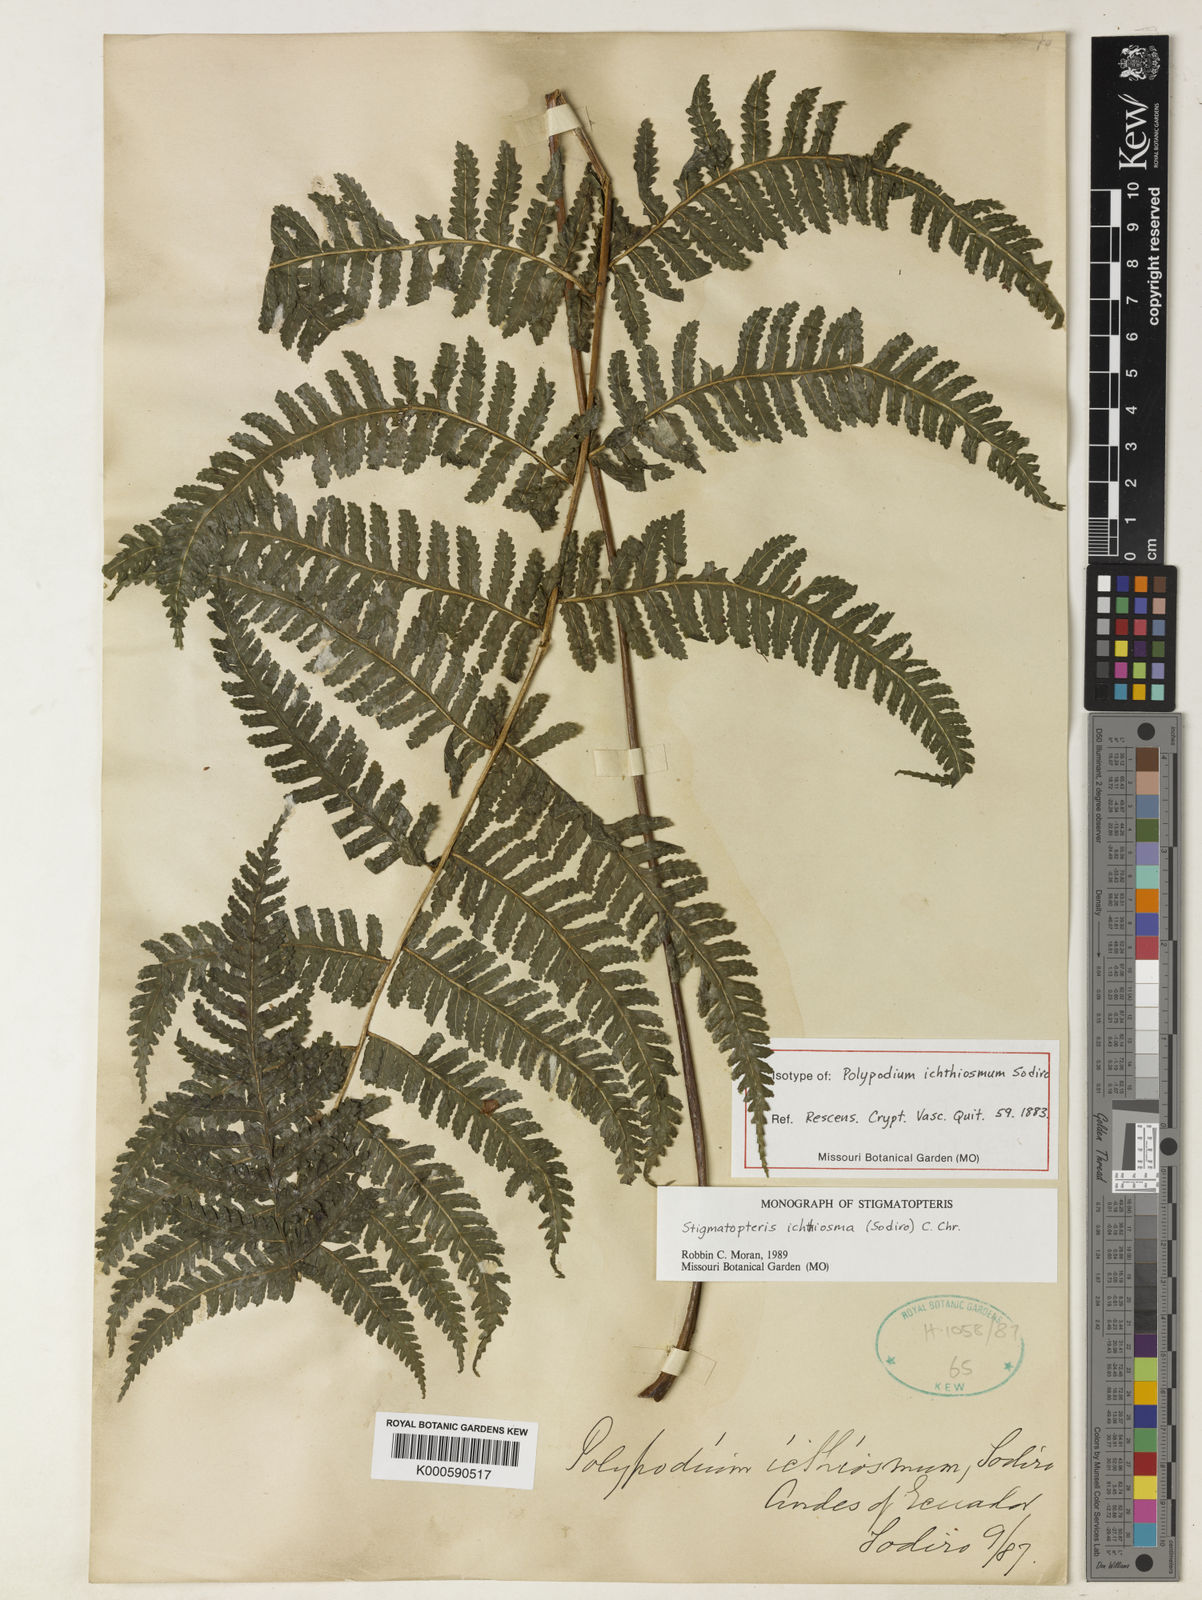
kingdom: Plantae
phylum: Tracheophyta
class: Polypodiopsida
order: Polypodiales
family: Dryopteridaceae
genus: Stigmatopteris
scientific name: Stigmatopteris
